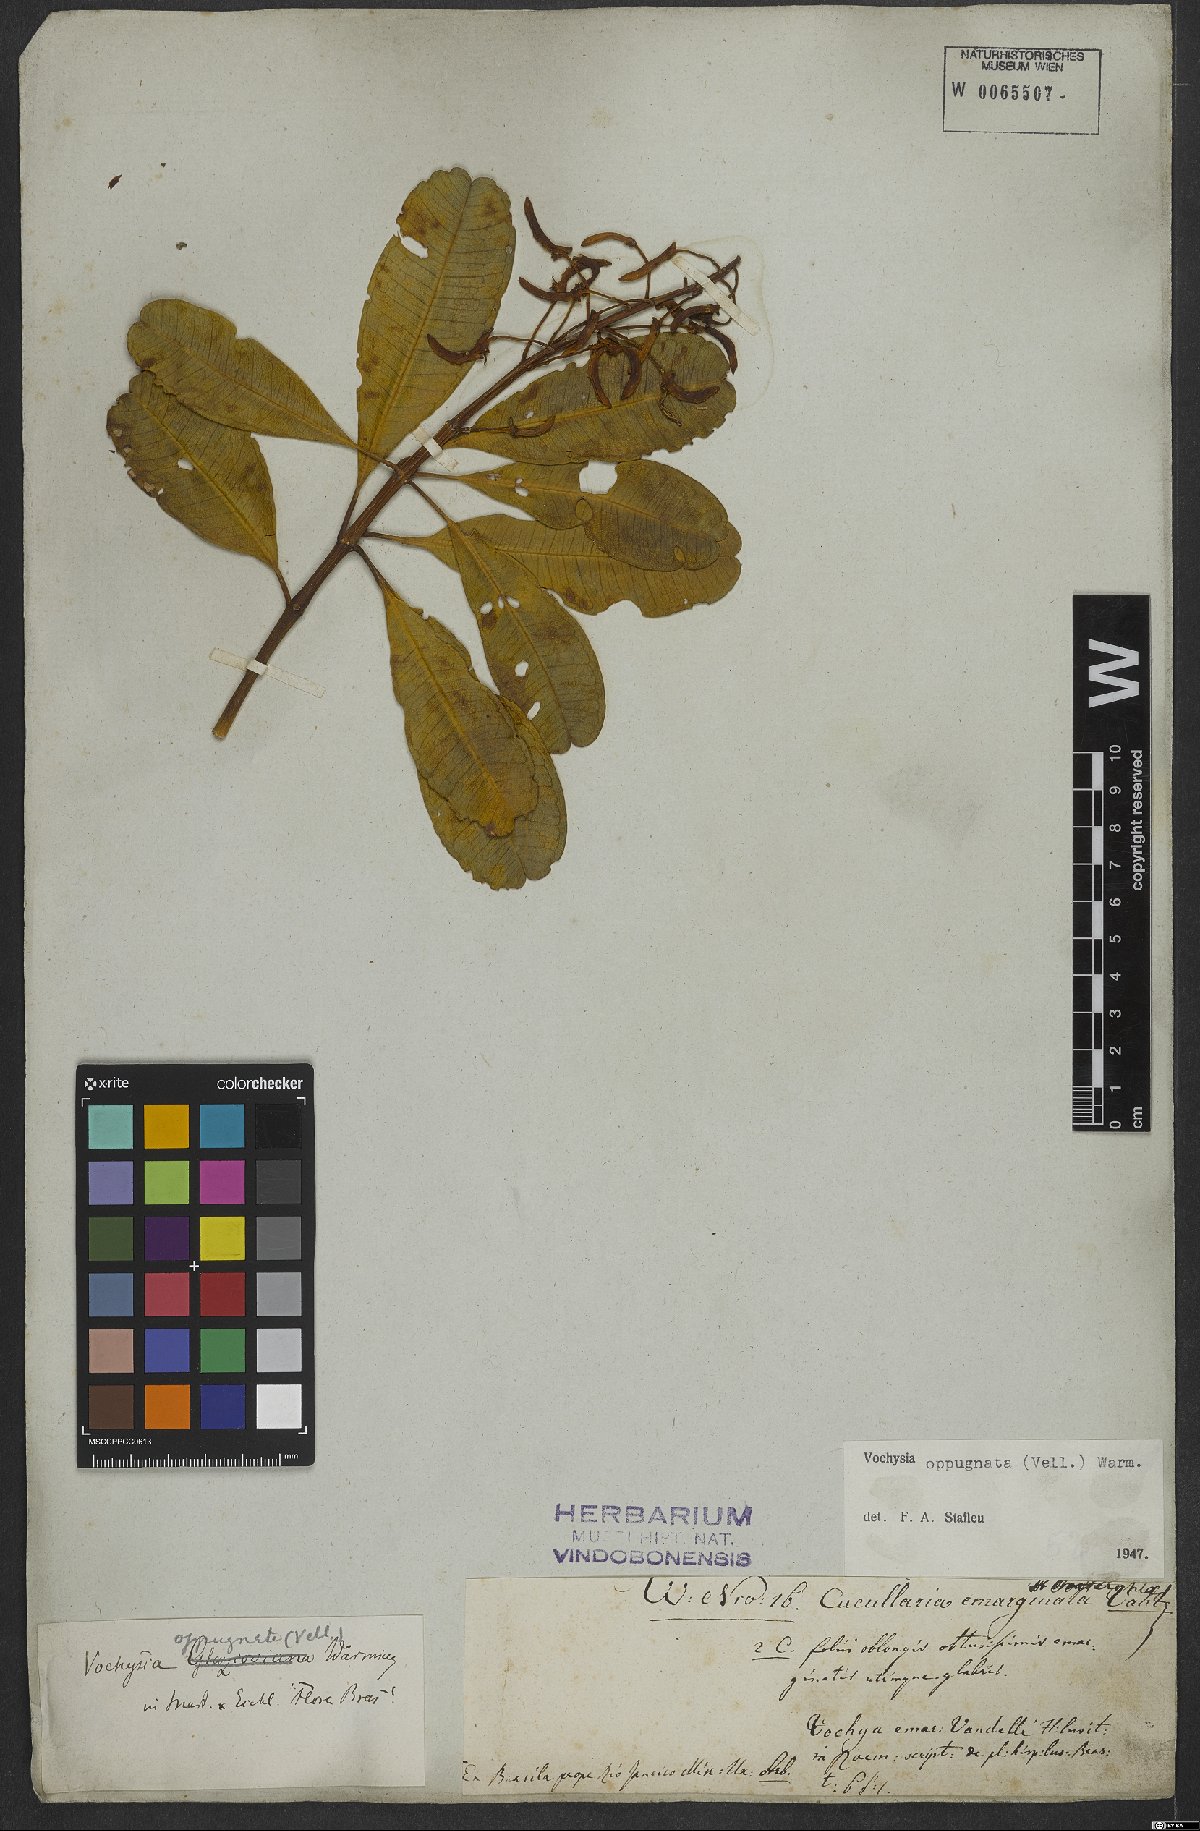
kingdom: Plantae
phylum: Tracheophyta
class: Magnoliopsida
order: Myrtales
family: Vochysiaceae
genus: Vochysia
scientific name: Vochysia oppugnata
